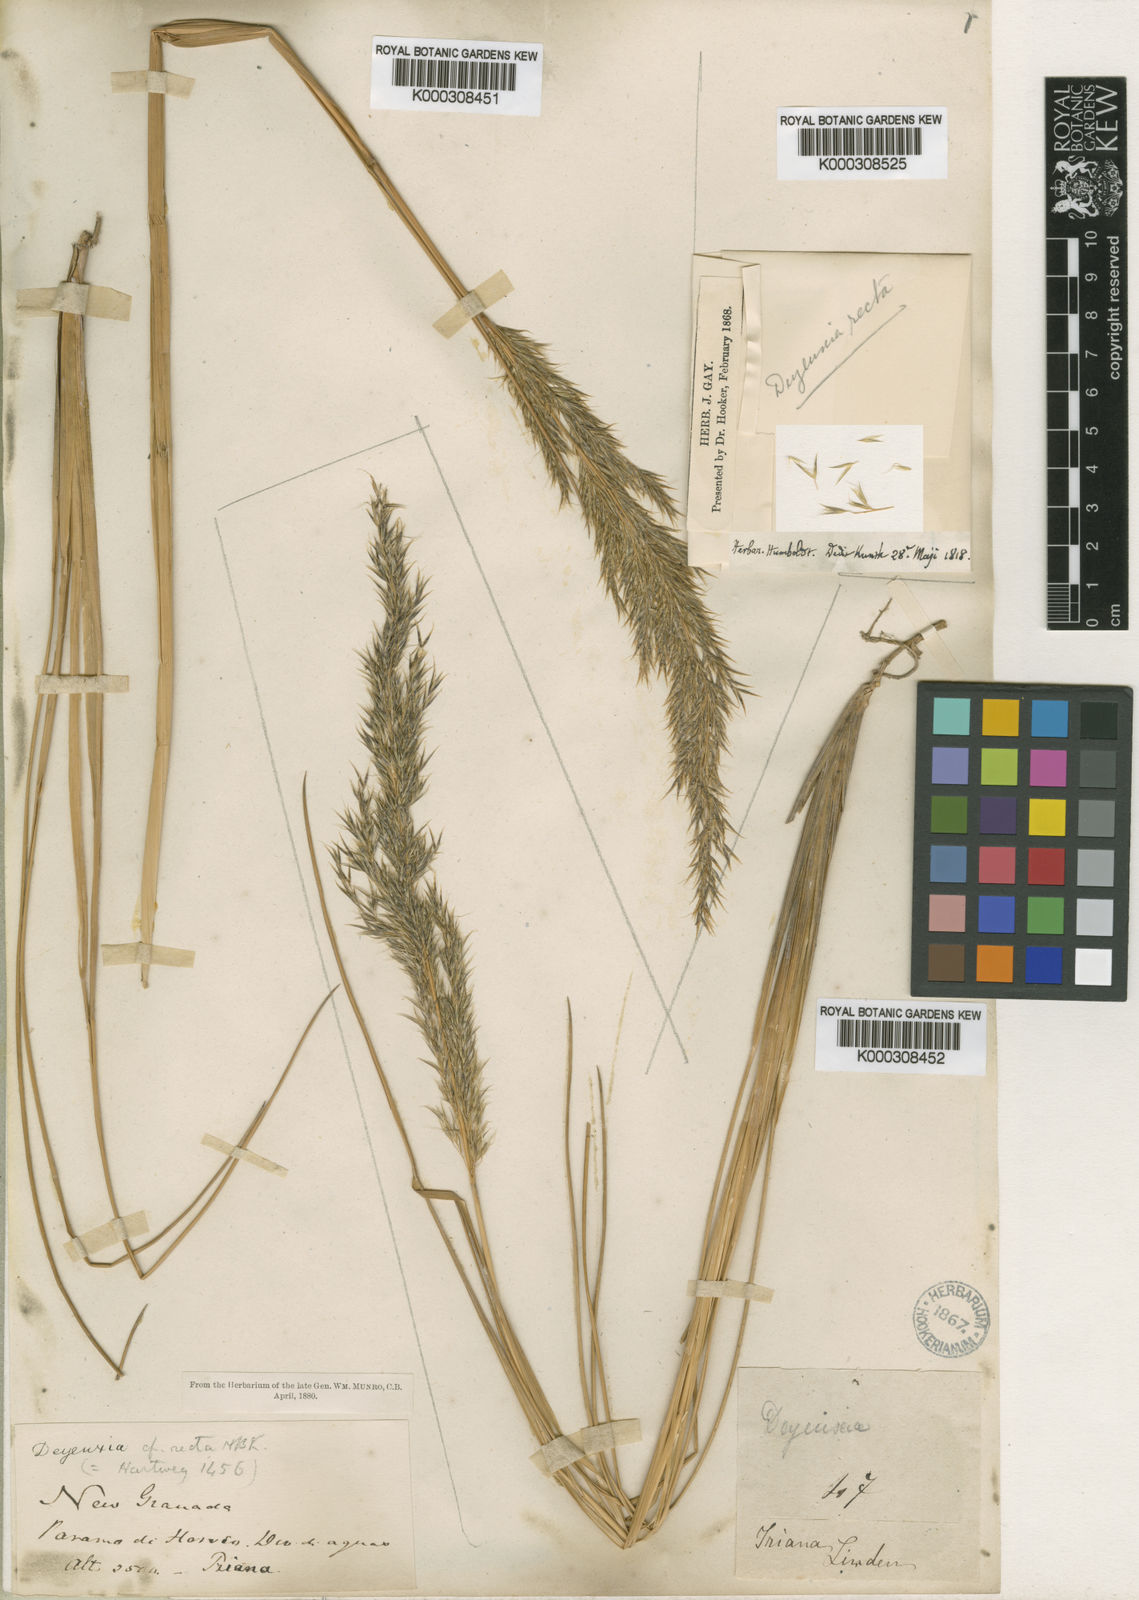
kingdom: Plantae
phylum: Tracheophyta
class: Liliopsida
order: Poales
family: Poaceae
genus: Cinnagrostis
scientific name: Cinnagrostis recta
